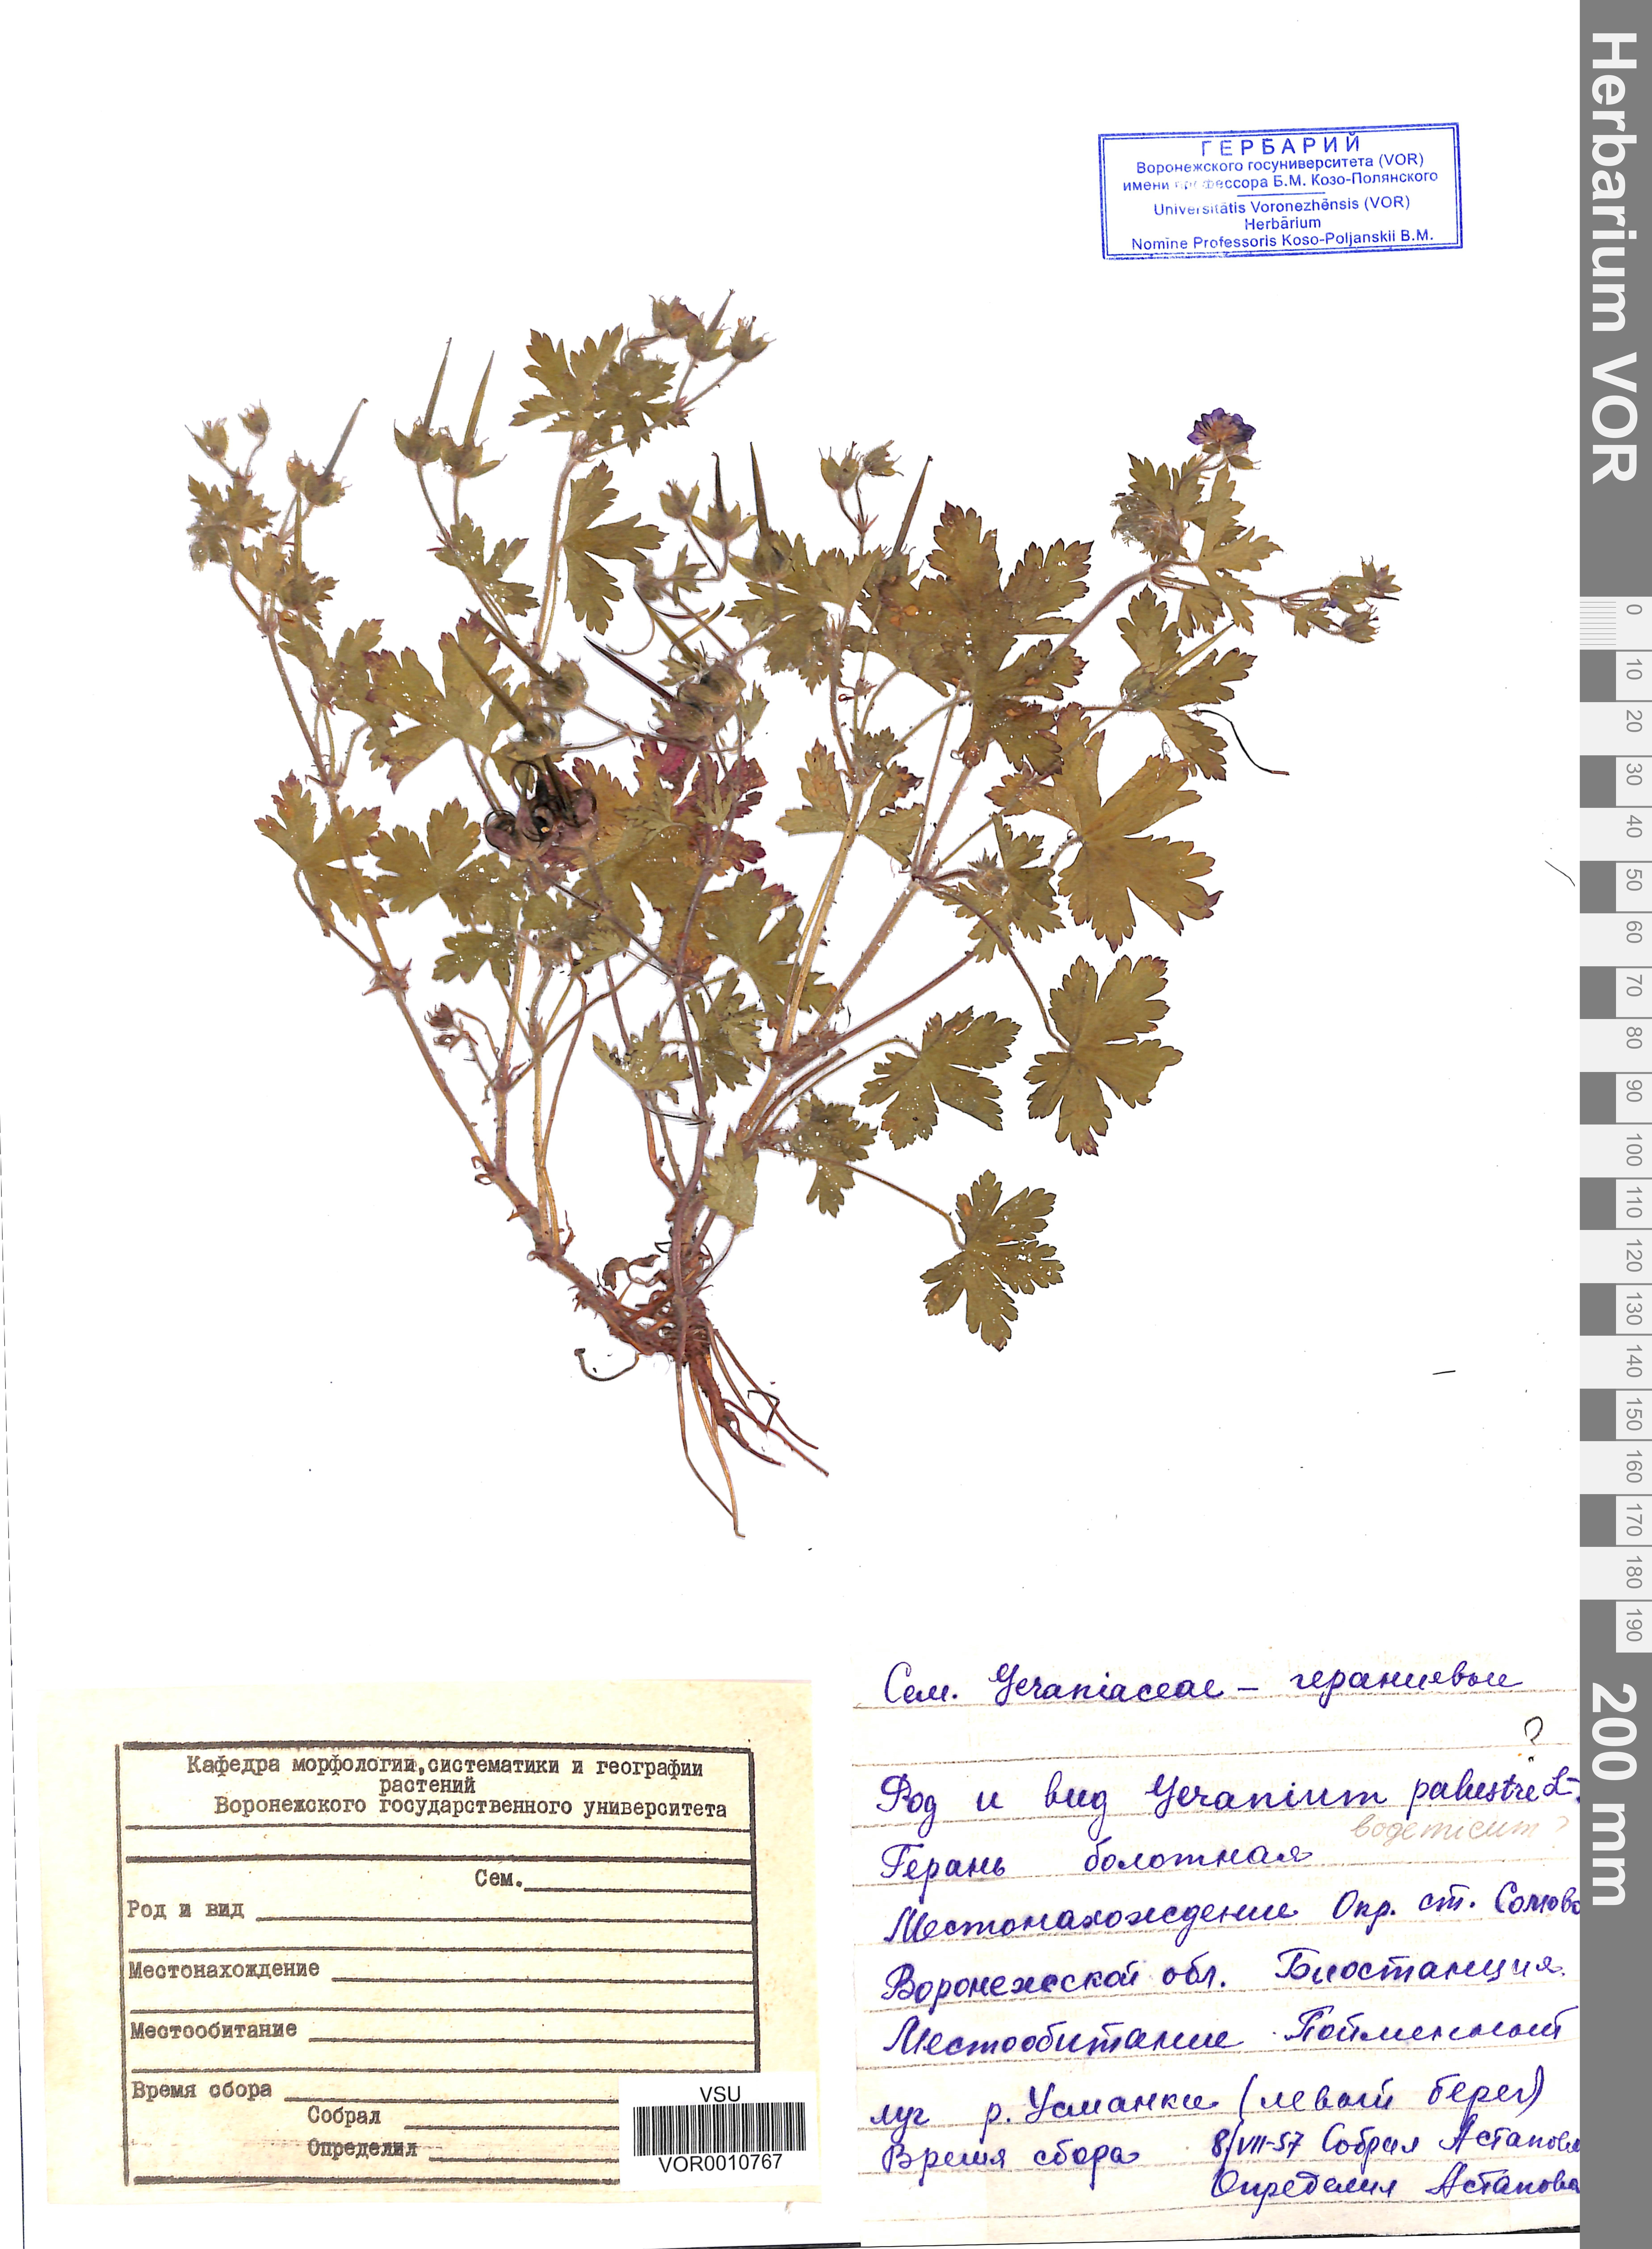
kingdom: Plantae
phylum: Tracheophyta
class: Magnoliopsida
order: Geraniales
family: Geraniaceae
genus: Geranium
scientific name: Geranium palustre
